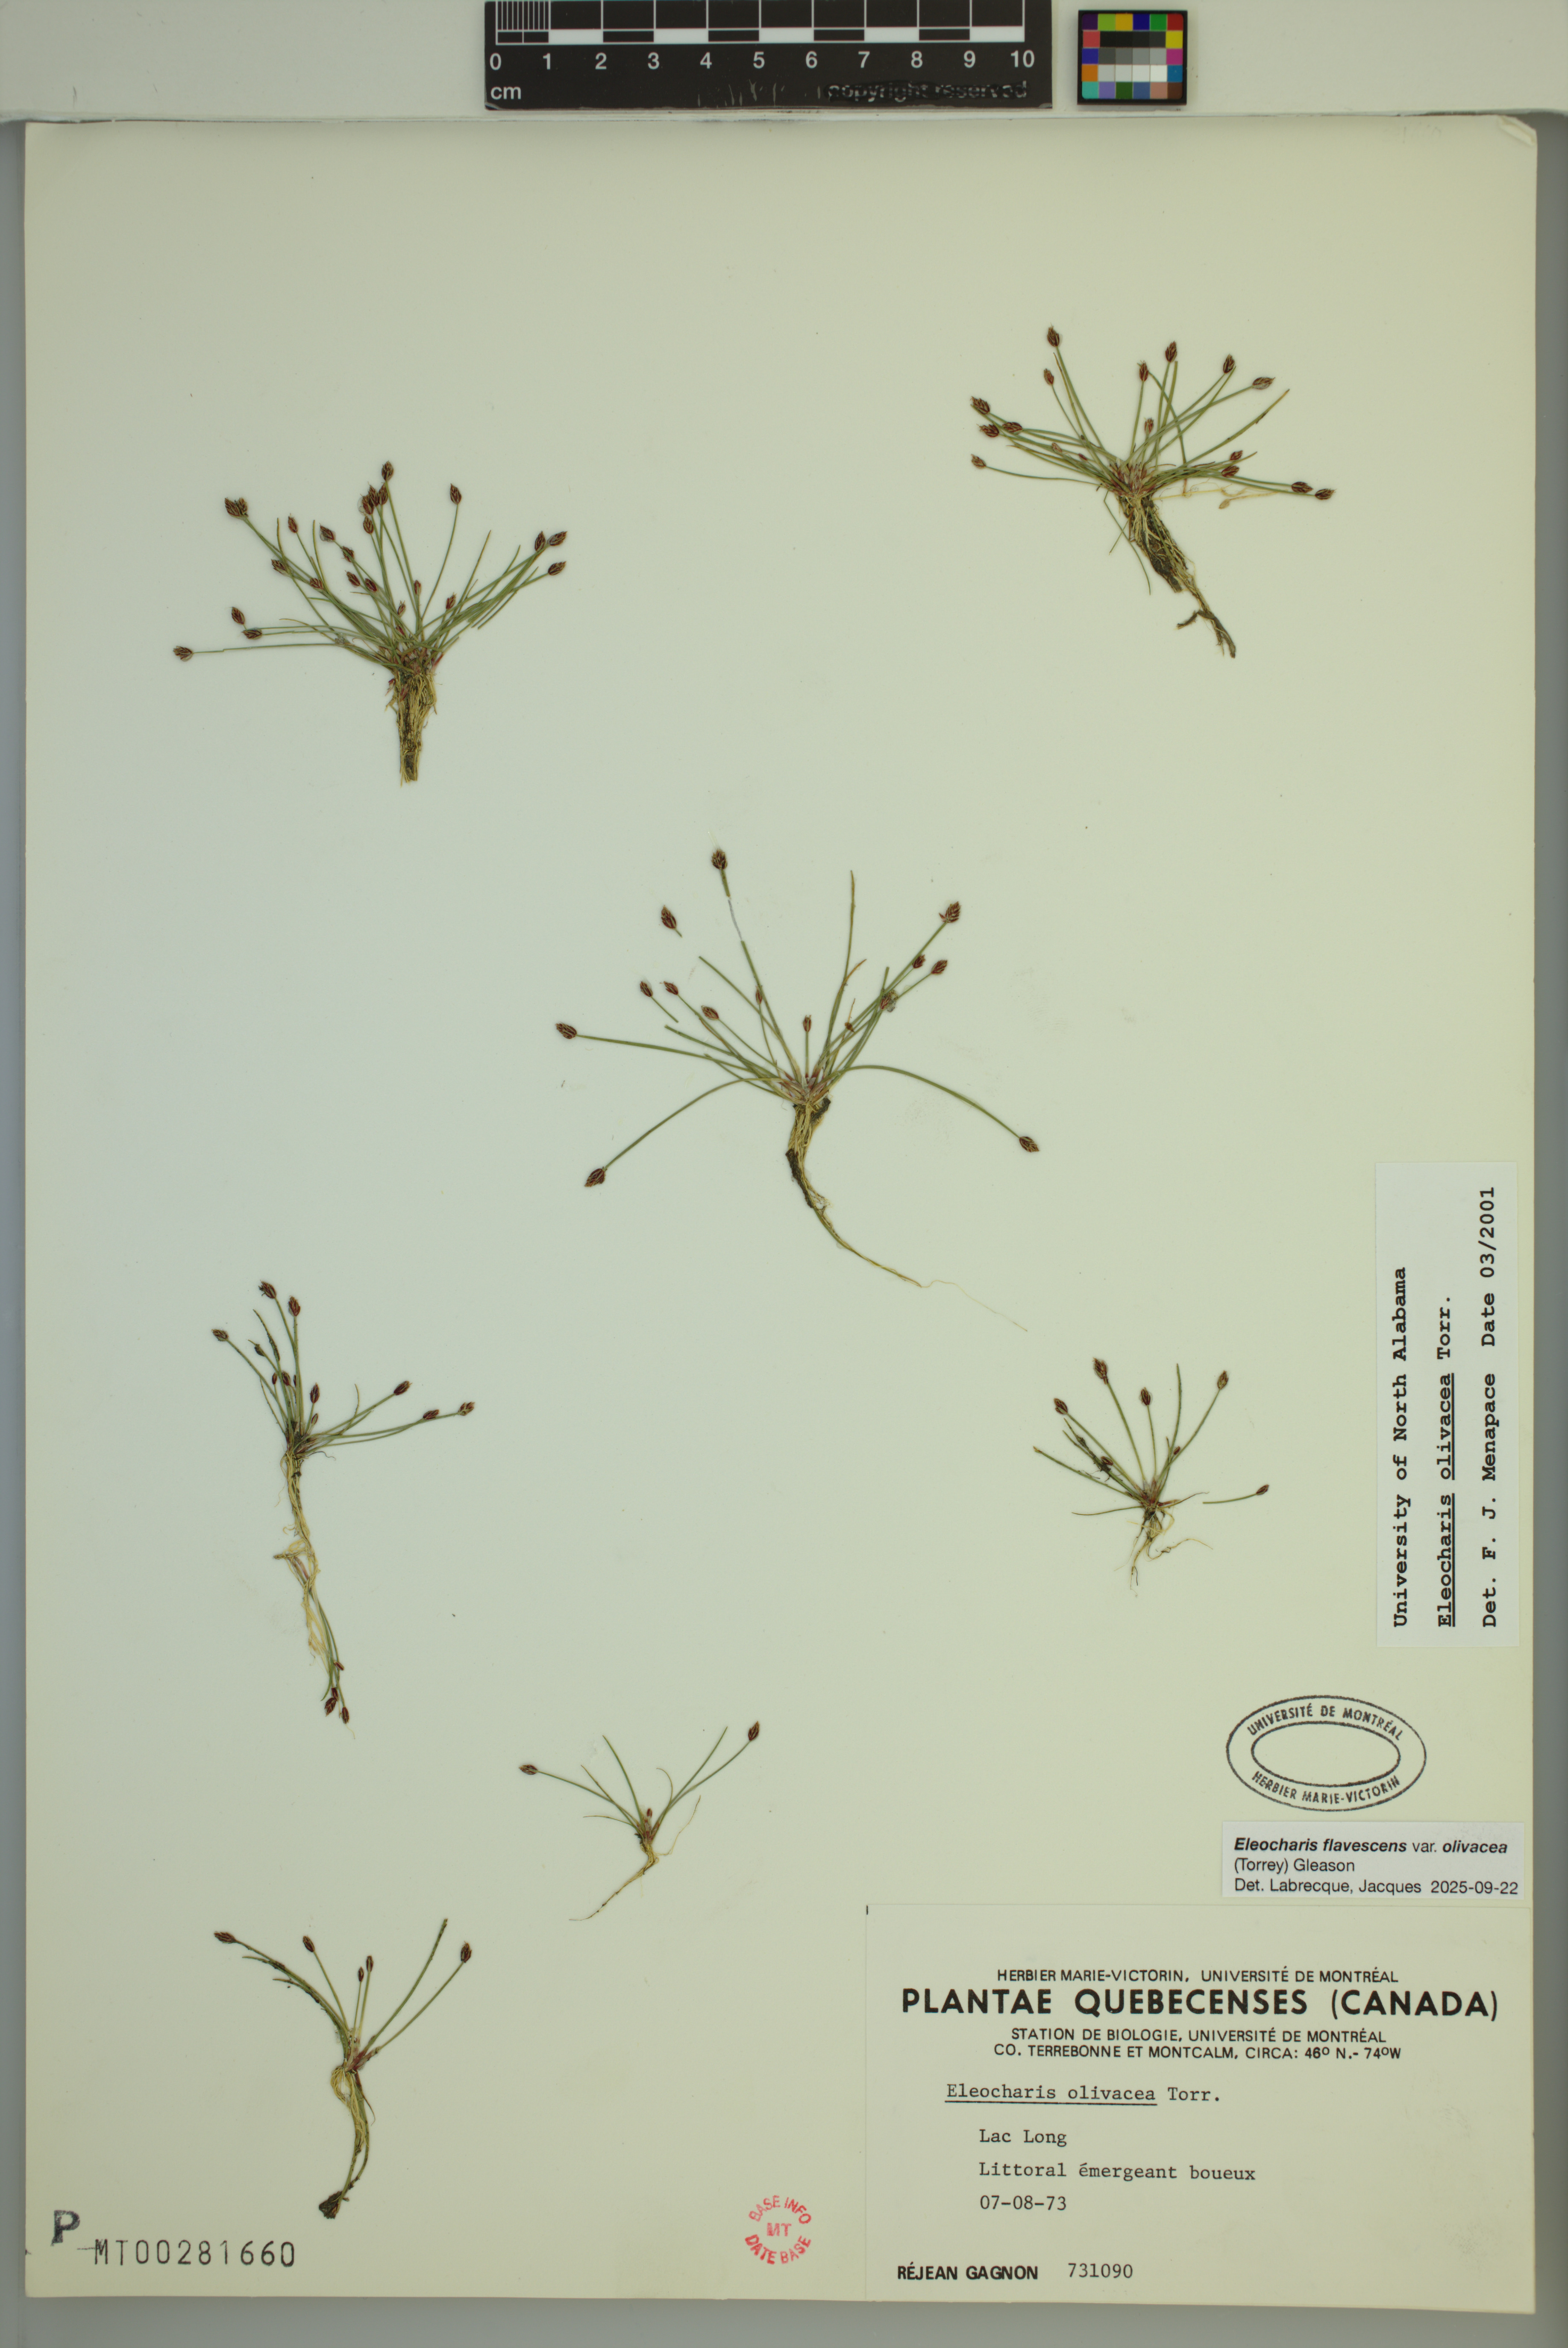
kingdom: Plantae
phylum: Tracheophyta
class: Liliopsida
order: Poales
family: Cyperaceae
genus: Eleocharis
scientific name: Eleocharis flavescens
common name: Yellow spikerush
